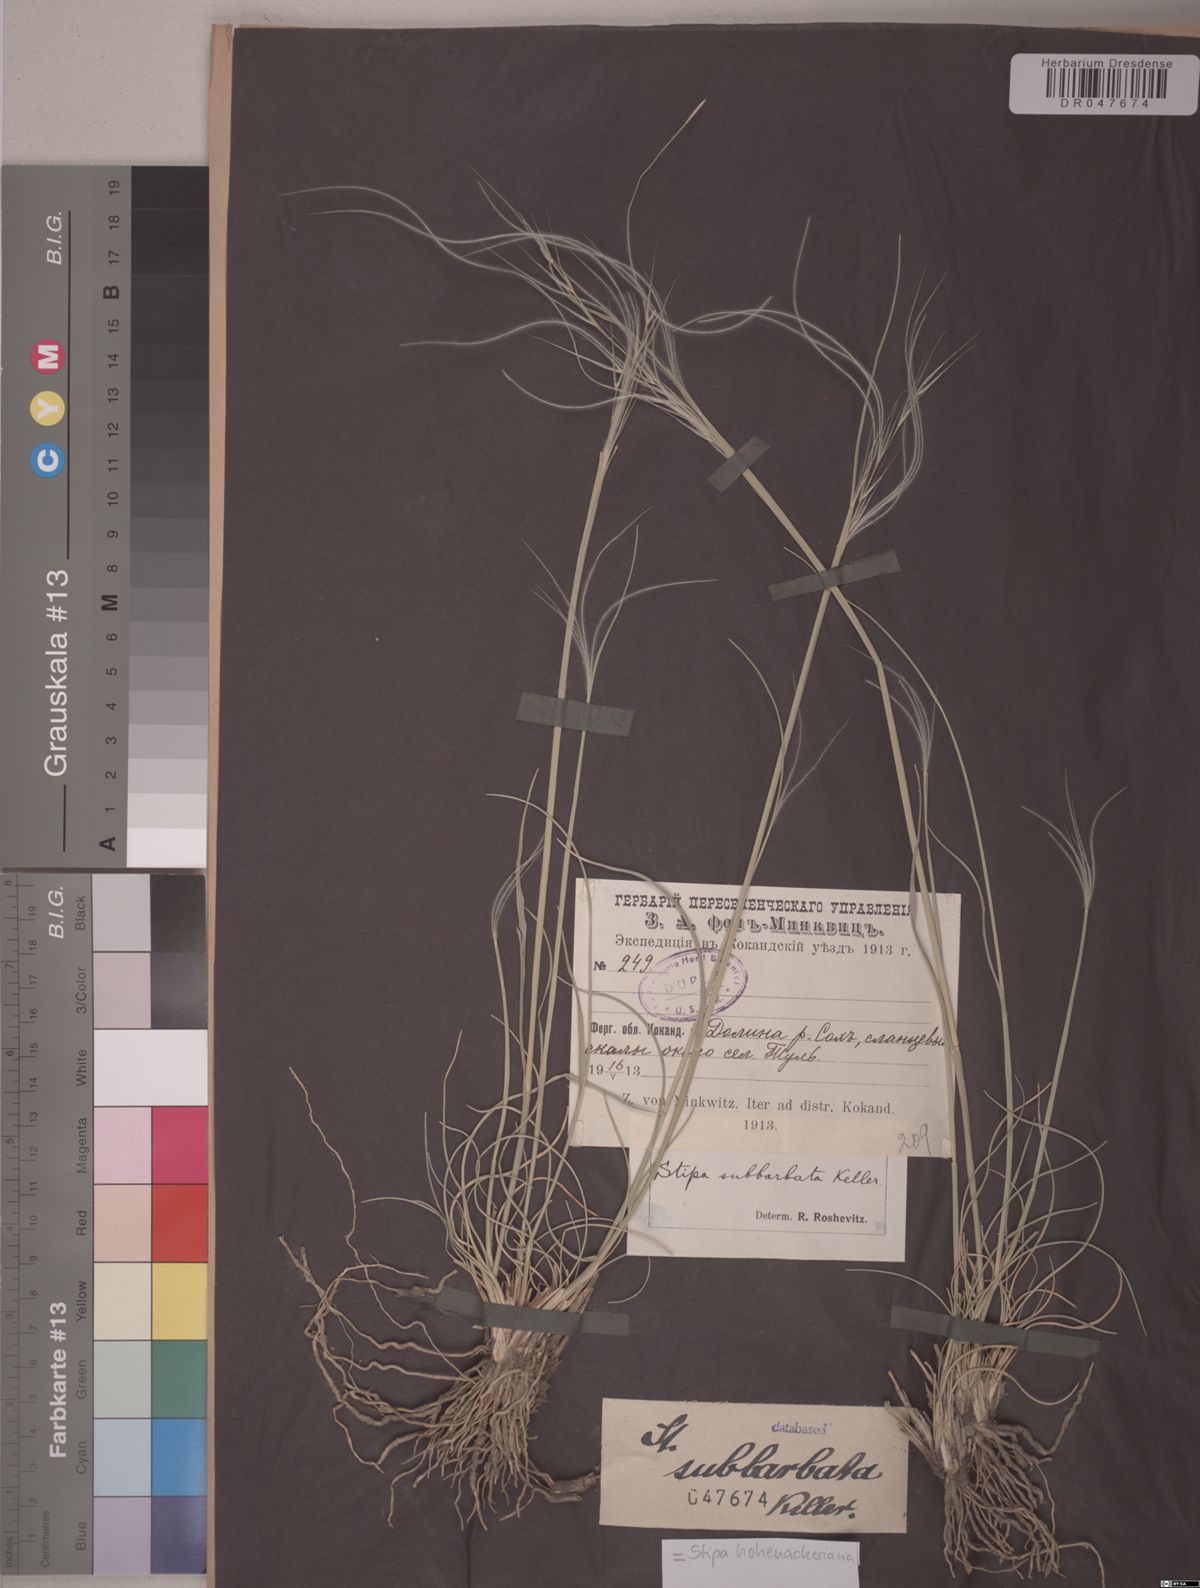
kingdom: Plantae
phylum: Tracheophyta
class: Liliopsida
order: Poales
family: Poaceae
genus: Stipa
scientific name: Stipa hohenackeriana
